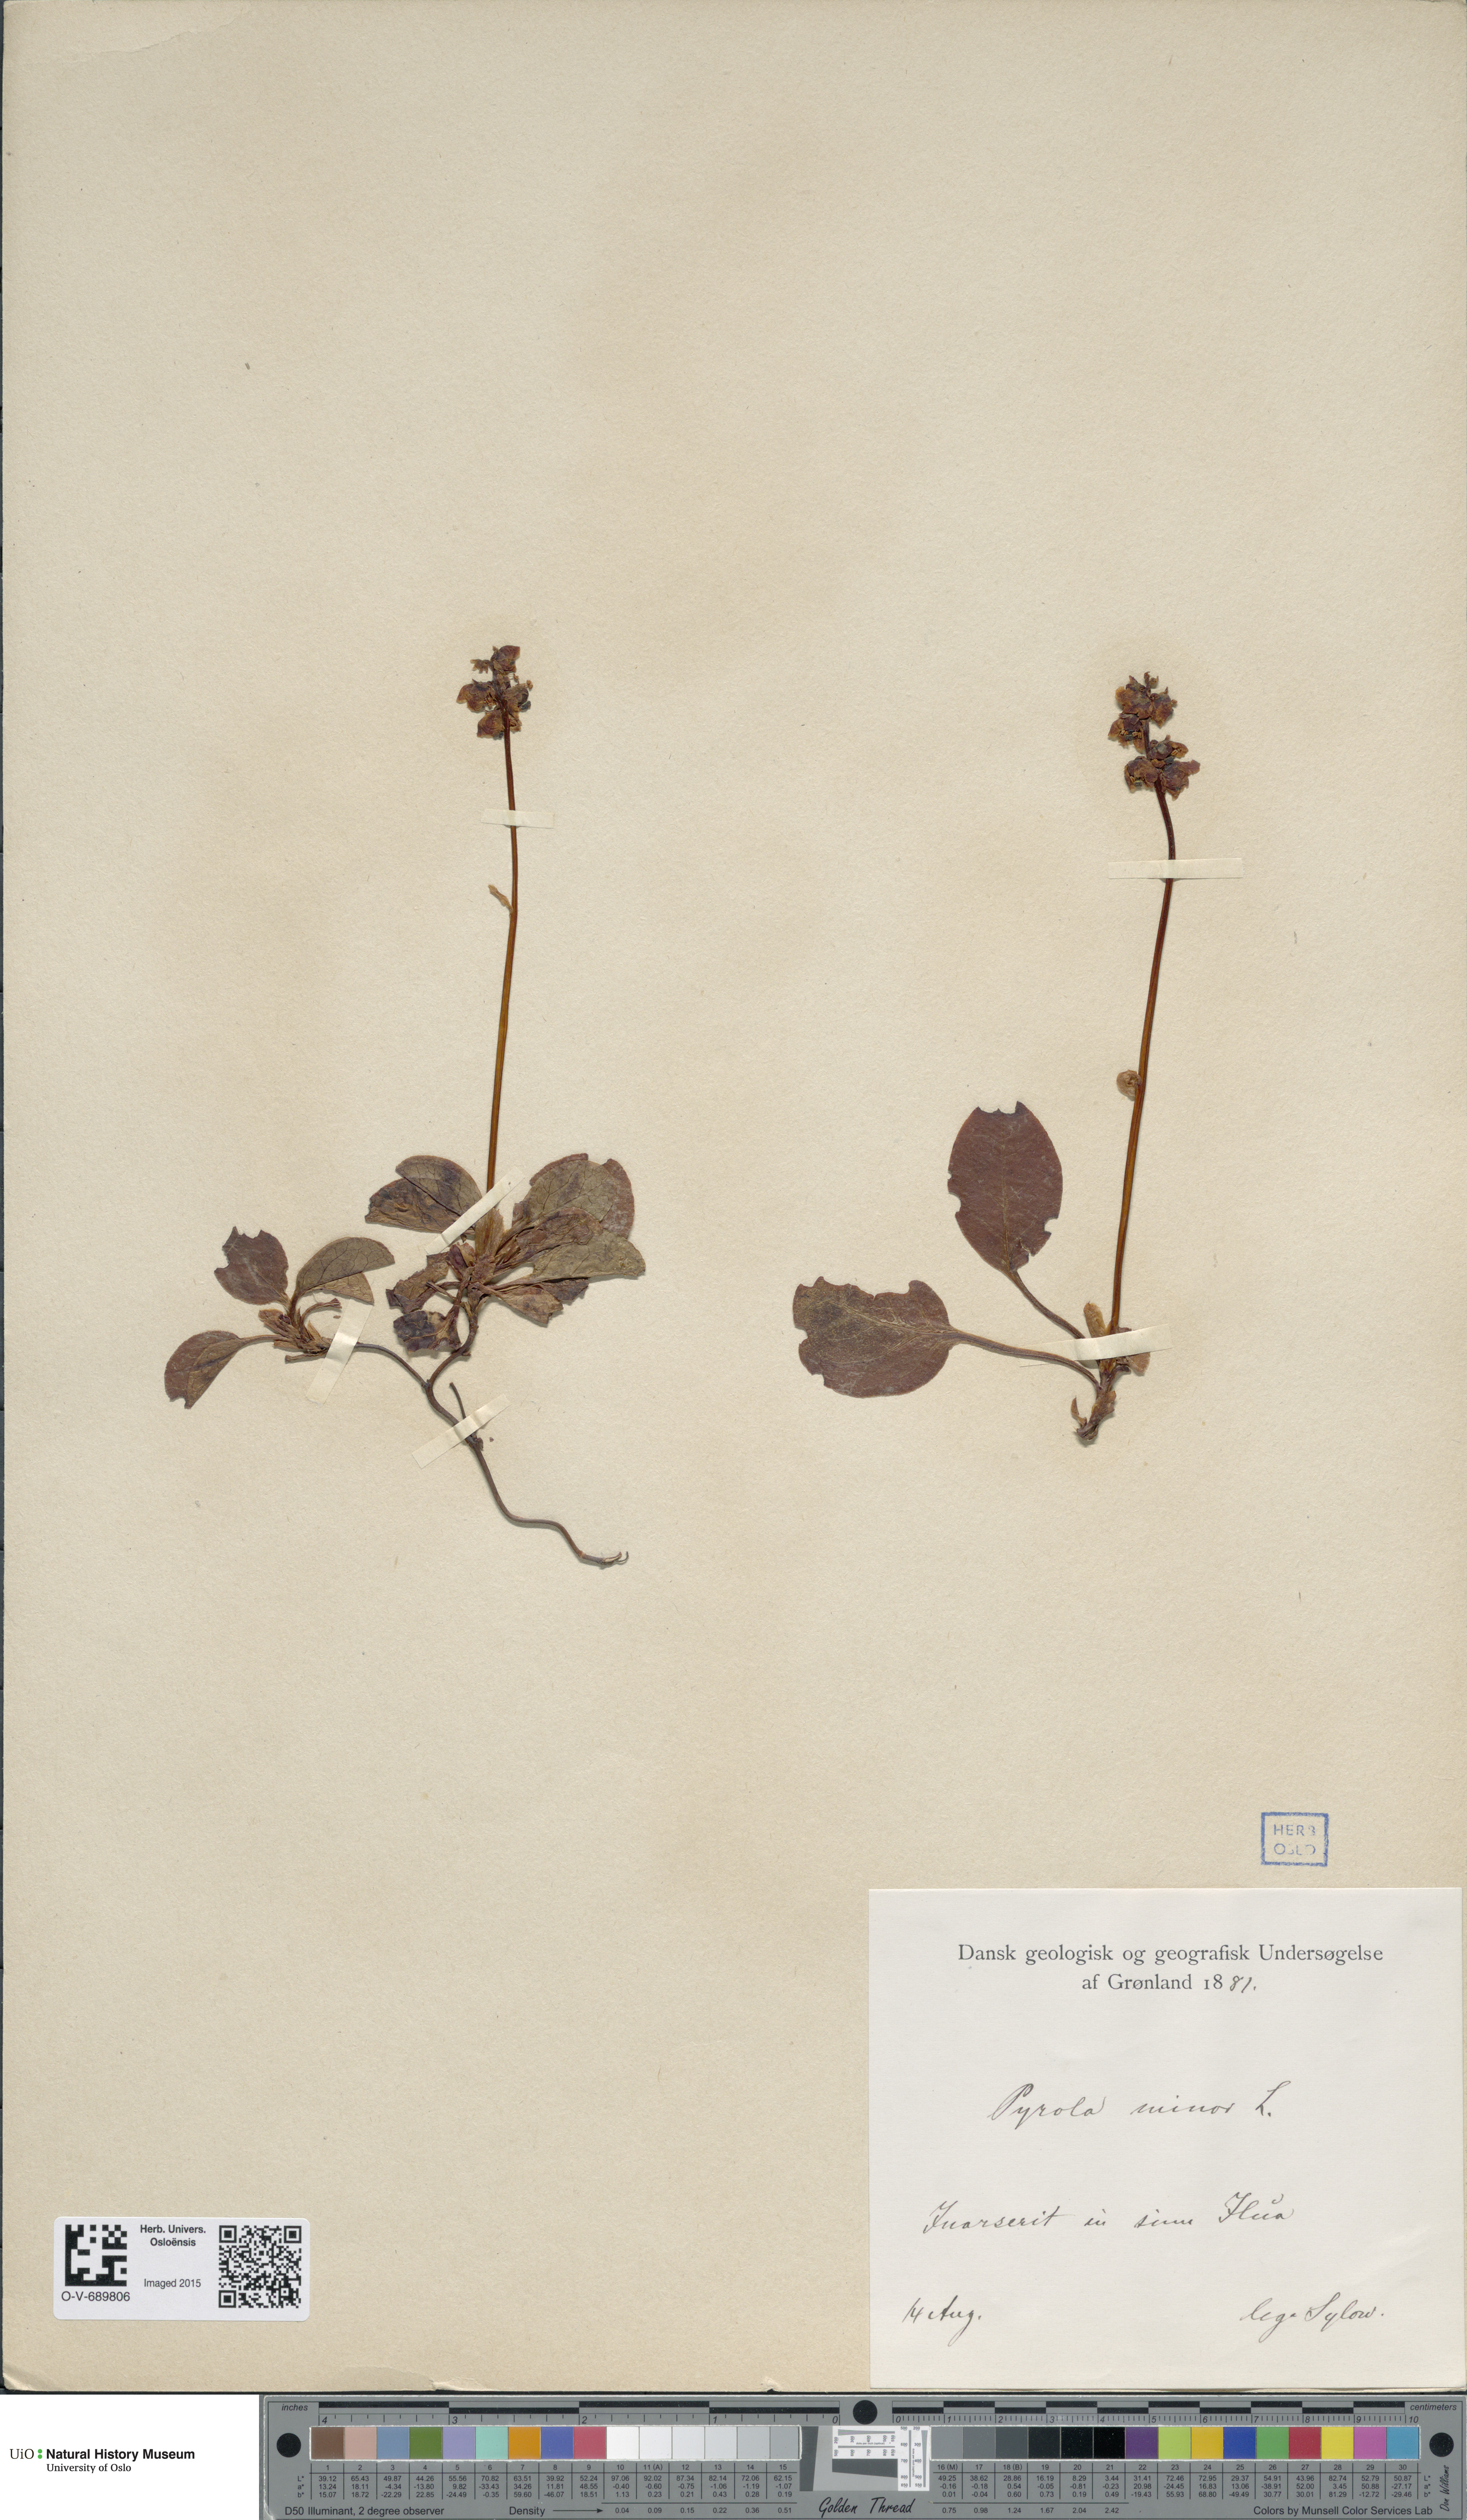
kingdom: Plantae
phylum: Tracheophyta
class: Magnoliopsida
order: Ericales
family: Ericaceae
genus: Pyrola
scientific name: Pyrola minor
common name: Common wintergreen
